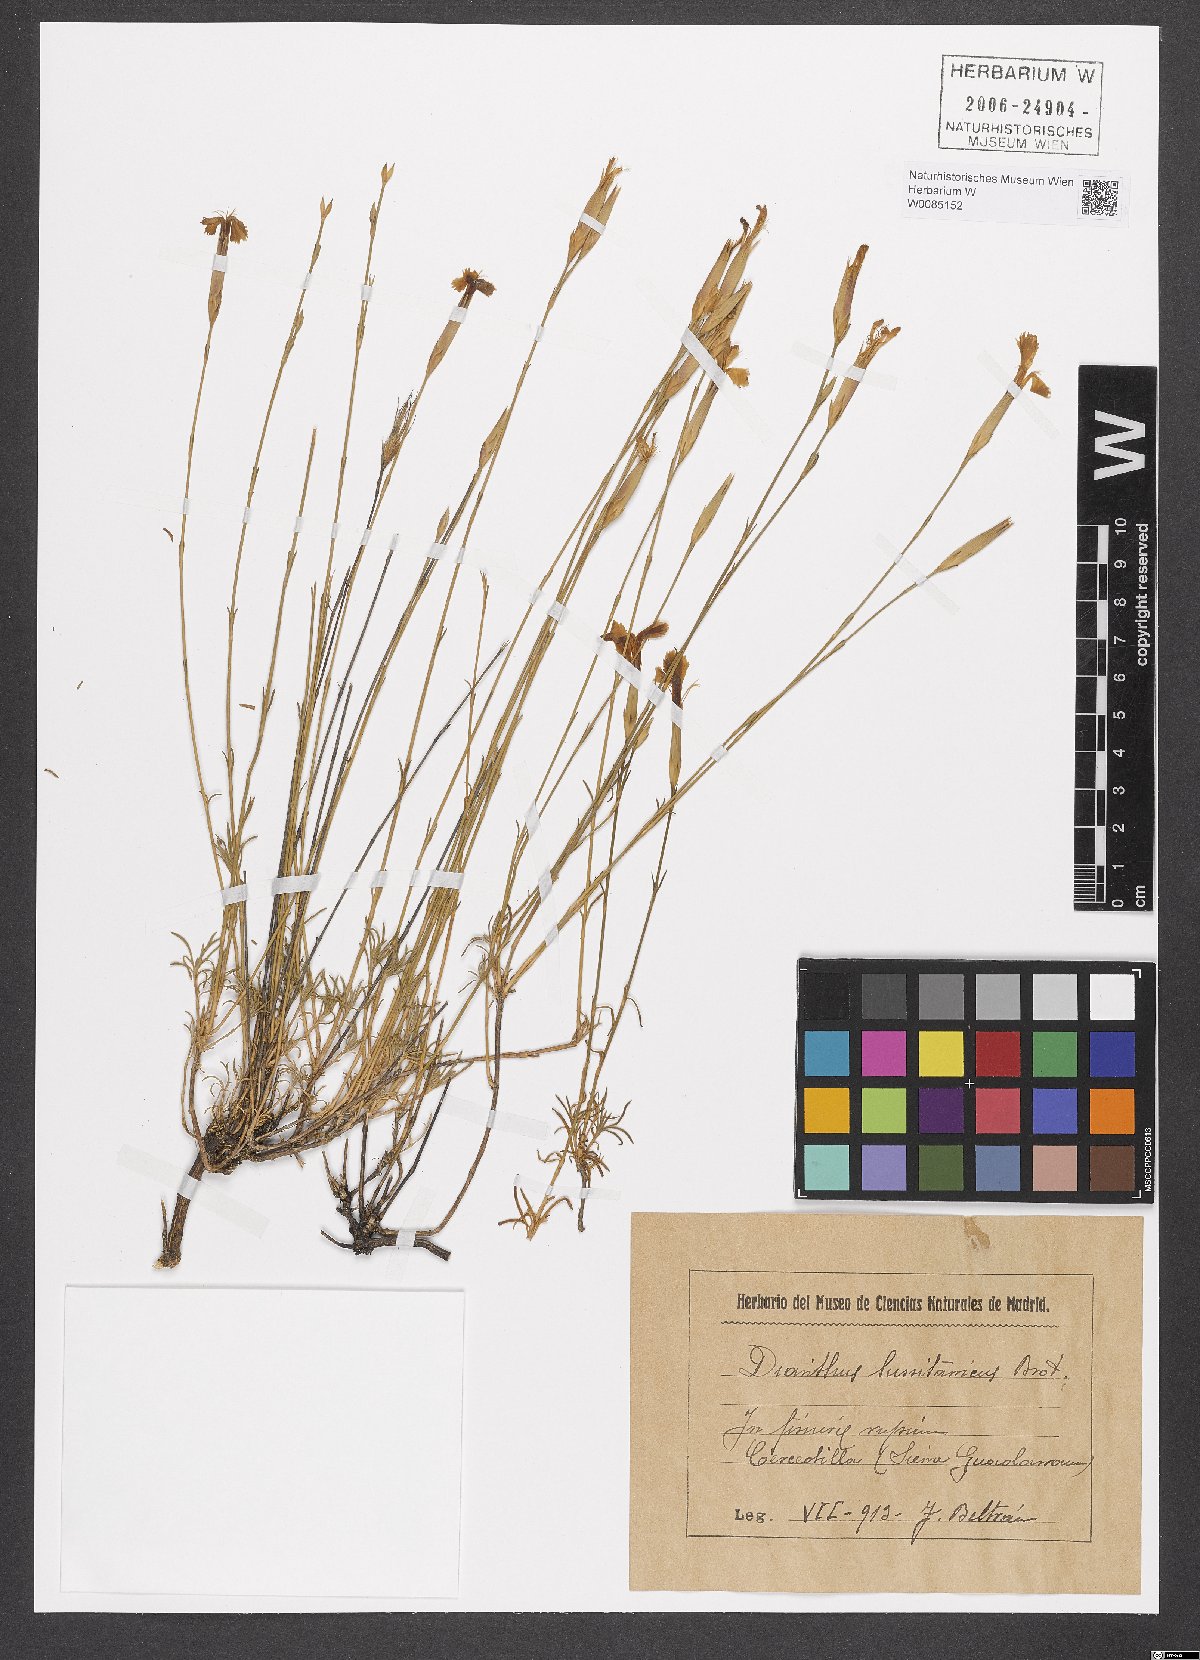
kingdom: Plantae
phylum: Tracheophyta
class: Magnoliopsida
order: Caryophyllales
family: Caryophyllaceae
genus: Dianthus
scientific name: Dianthus lusitanus
